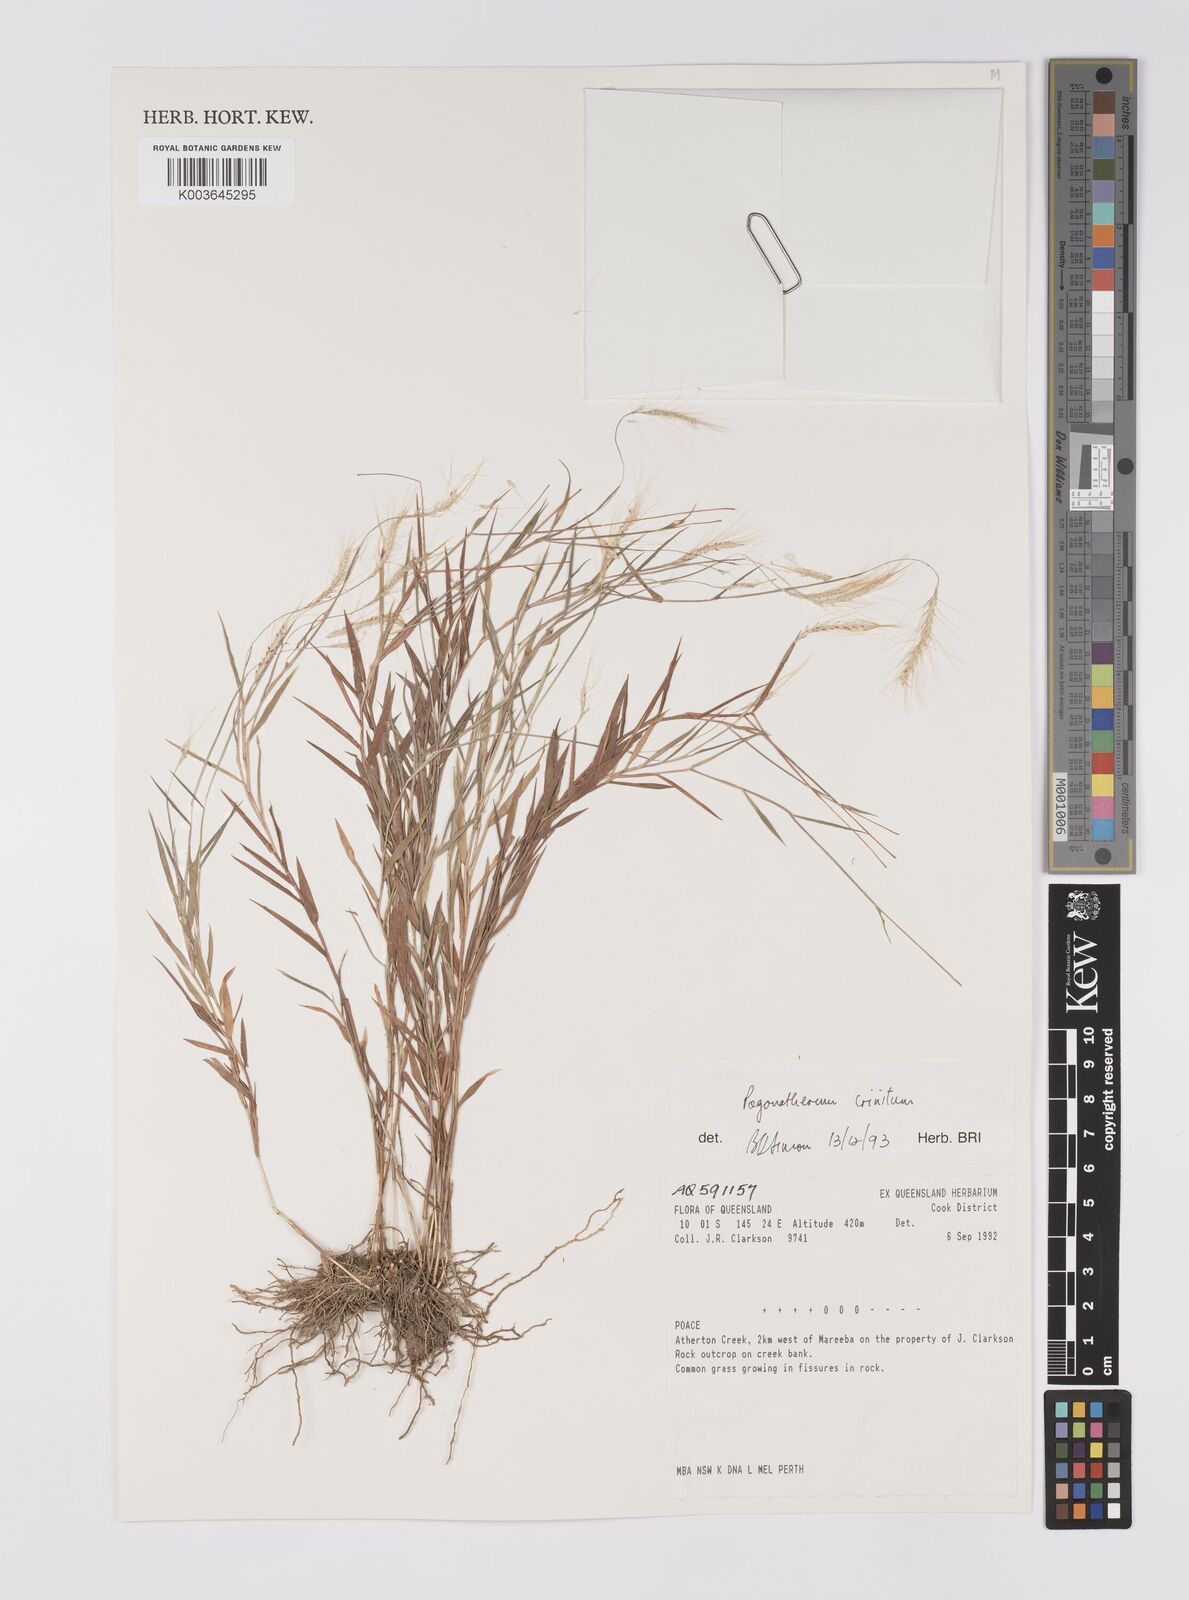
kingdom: Plantae
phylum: Tracheophyta
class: Liliopsida
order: Poales
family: Poaceae
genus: Pogonatherum
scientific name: Pogonatherum crinitum
